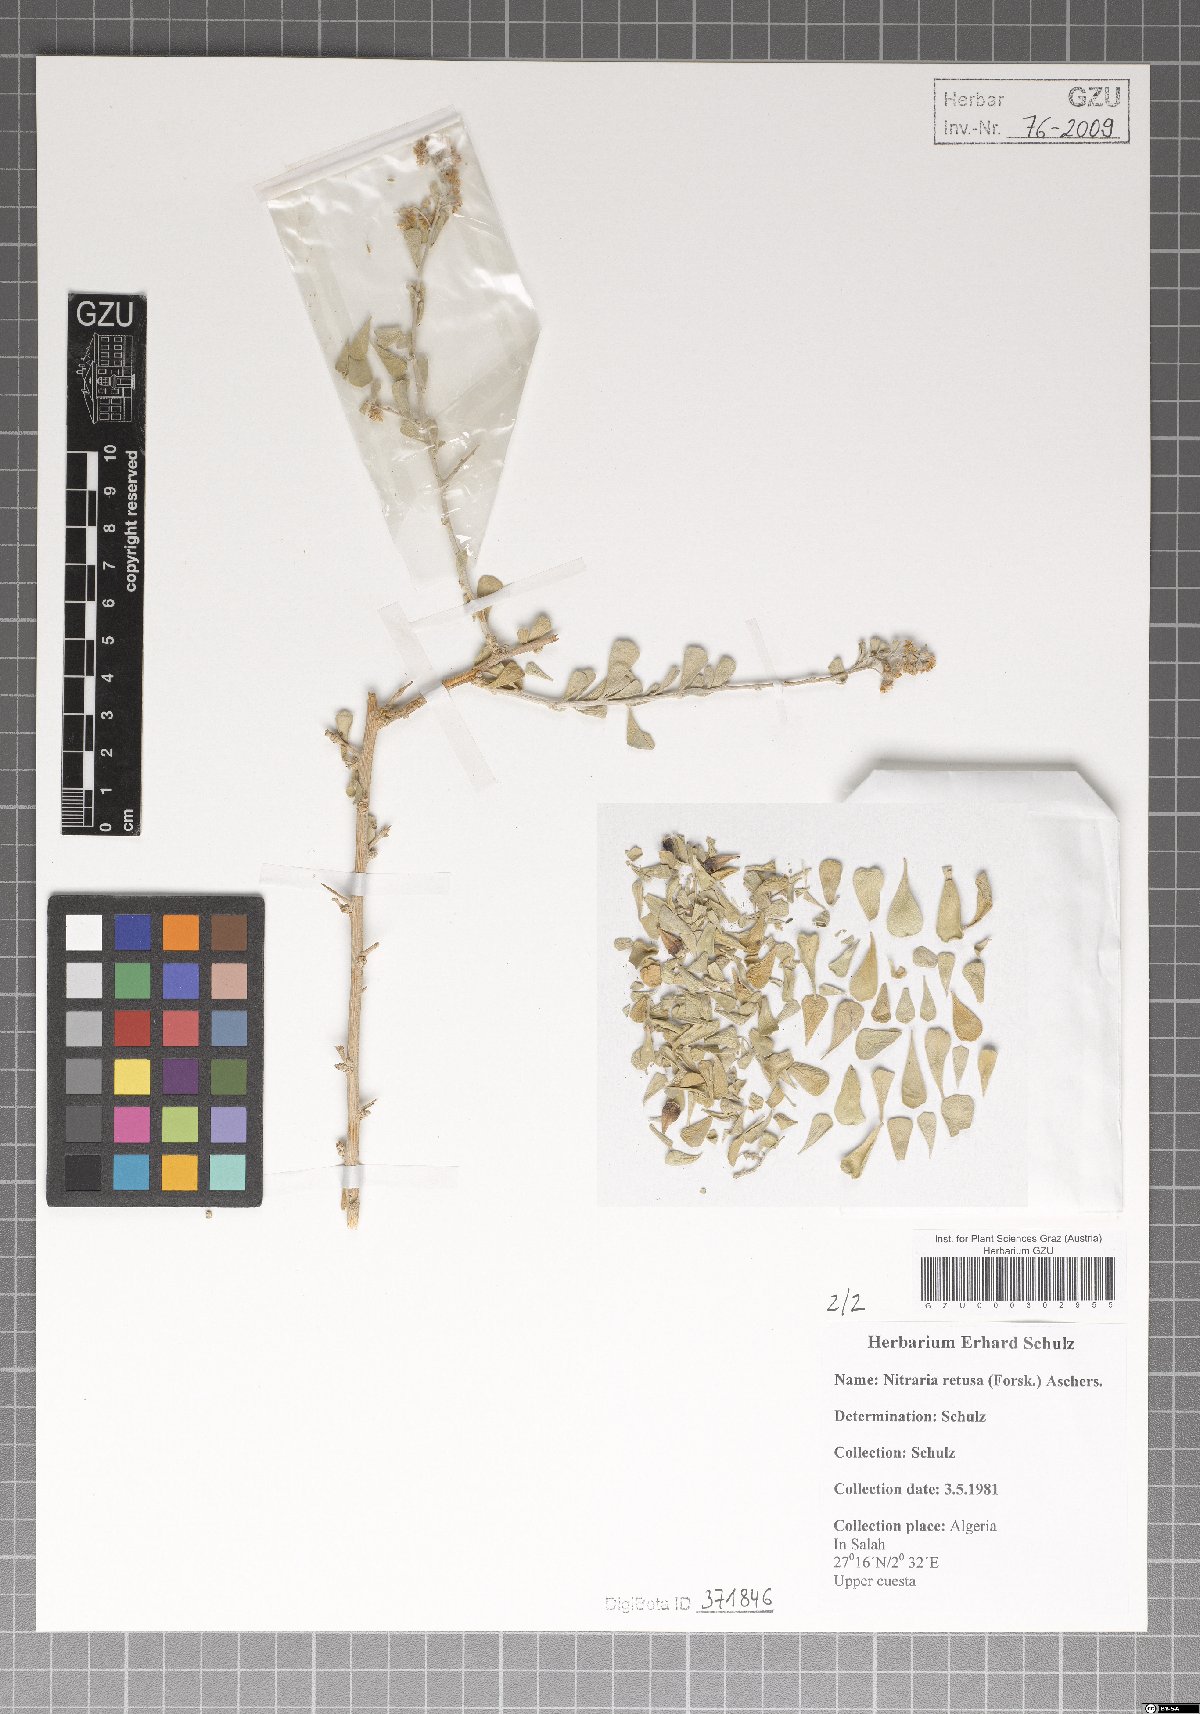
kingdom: Plantae
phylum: Tracheophyta
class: Magnoliopsida
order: Sapindales
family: Nitrariaceae
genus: Nitraria
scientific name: Nitraria retusa
